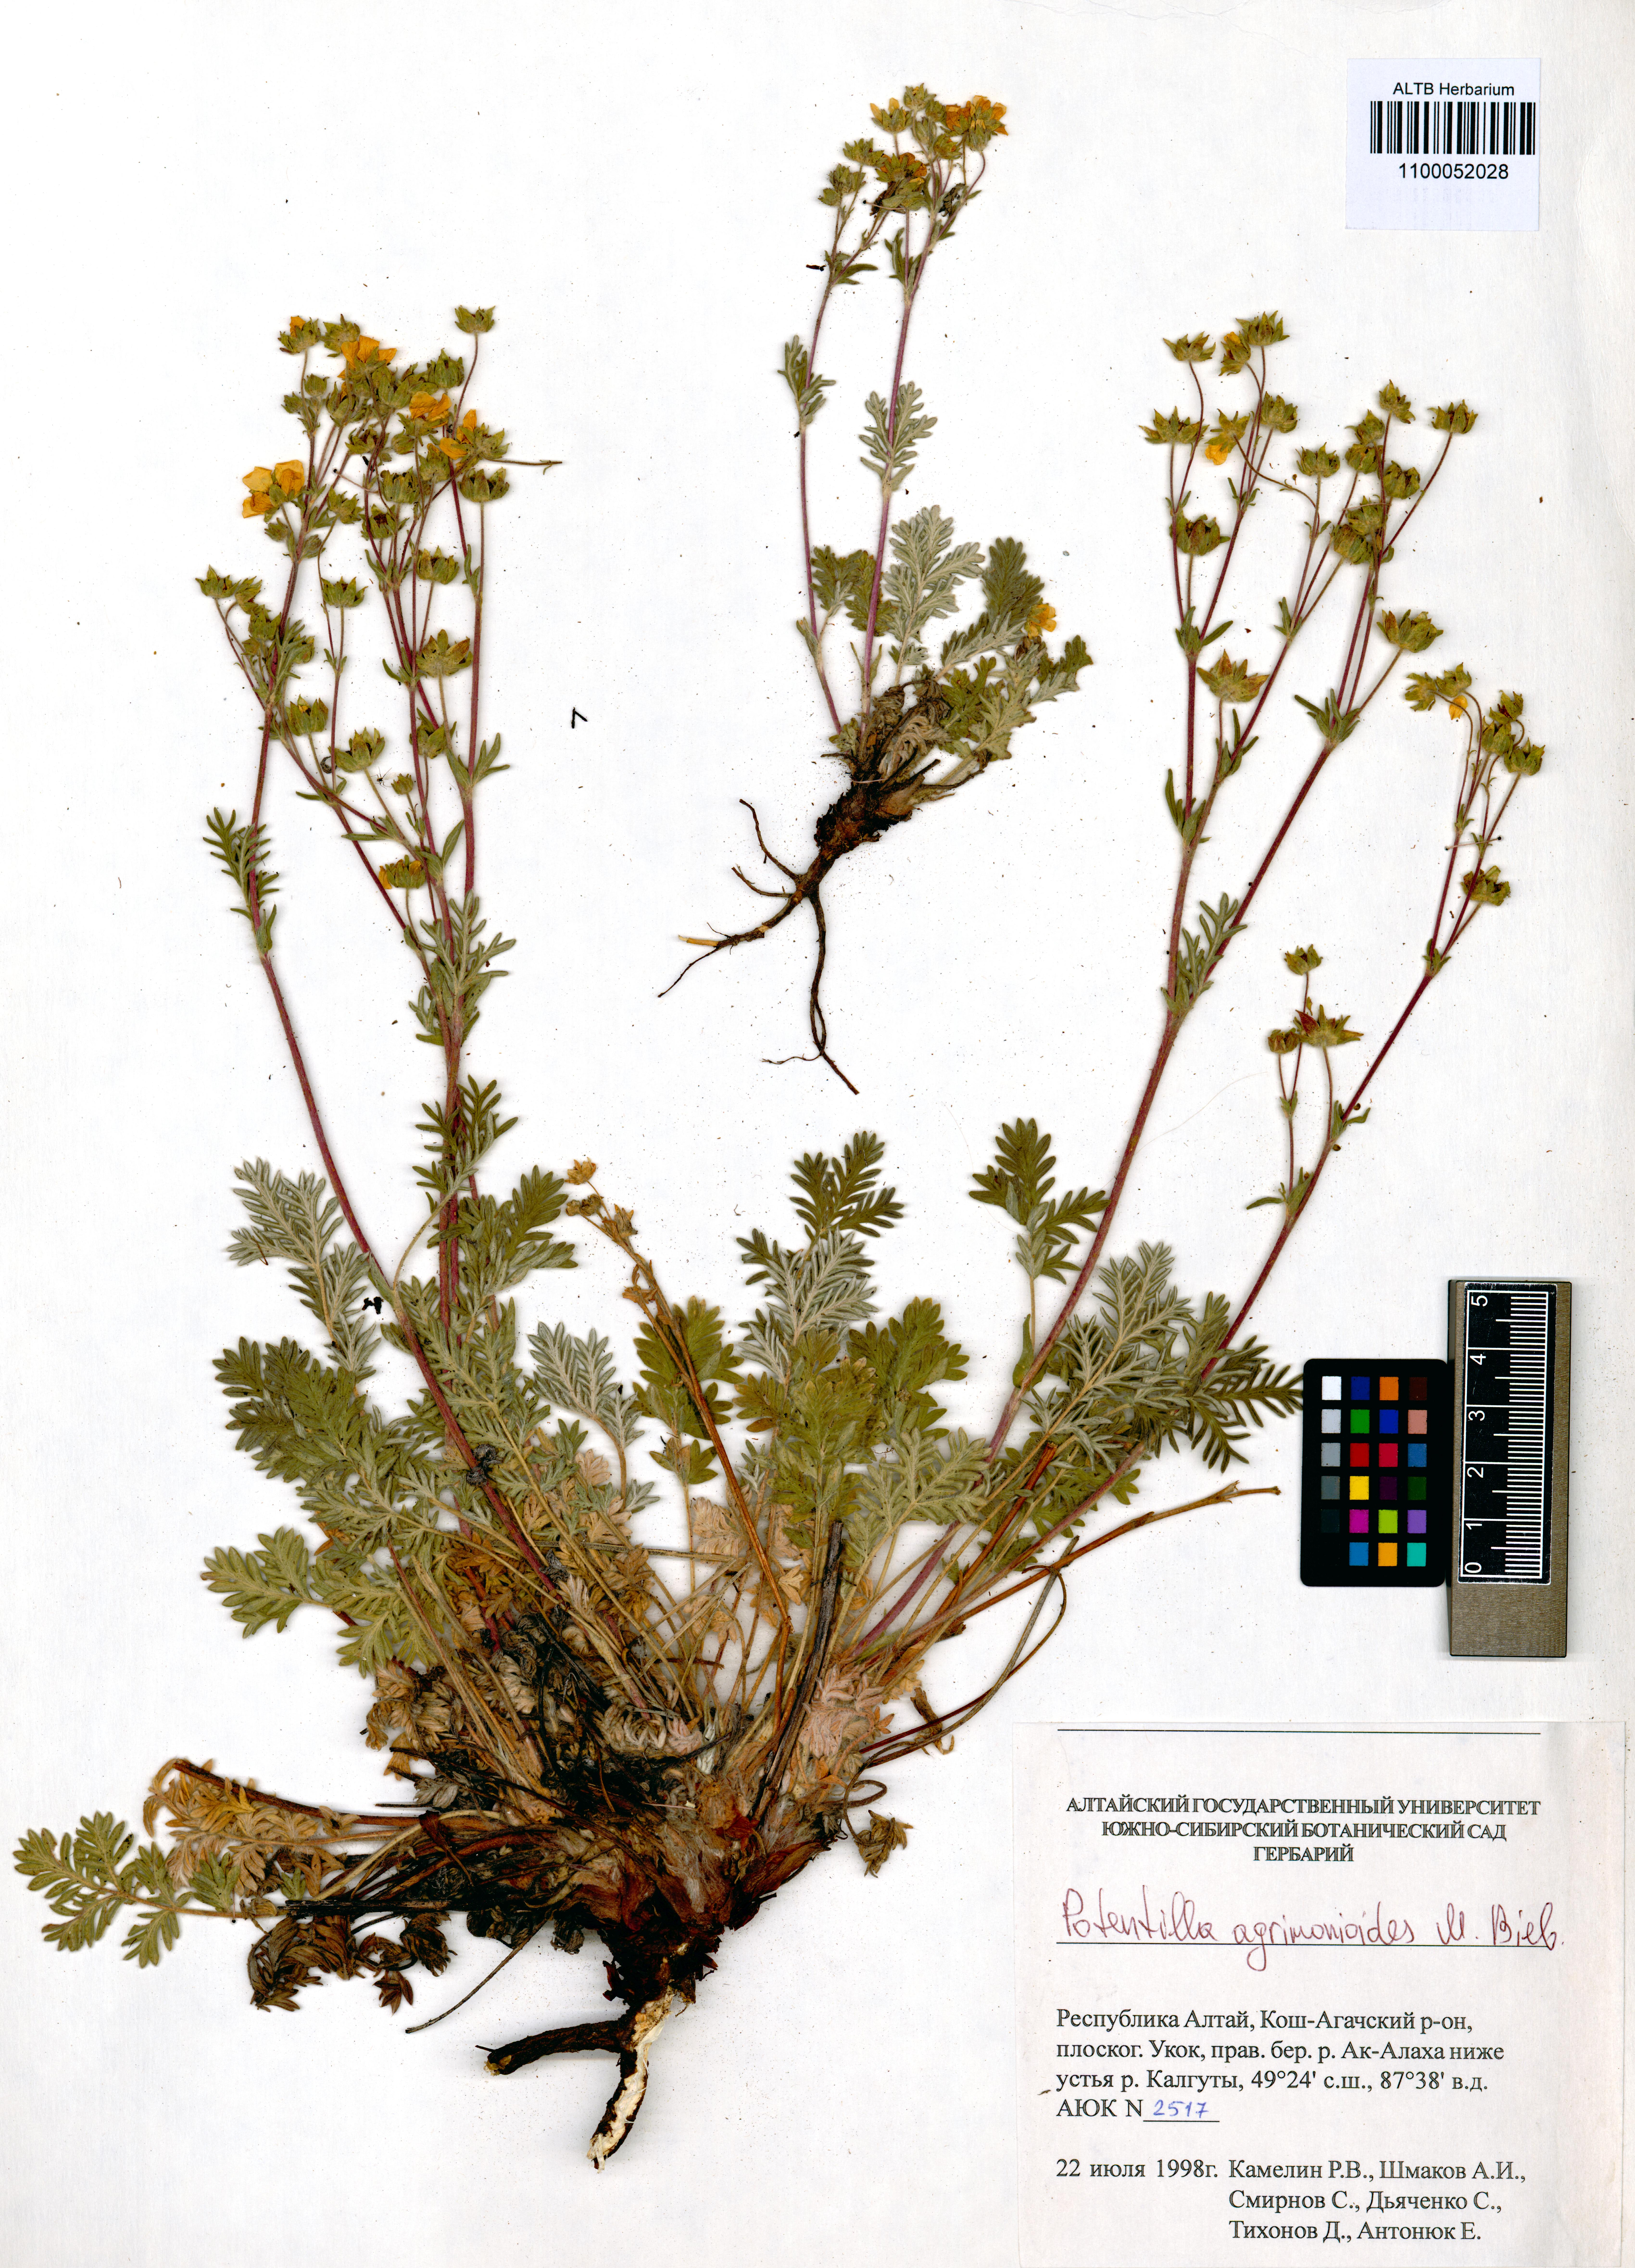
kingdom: Plantae
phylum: Tracheophyta
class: Magnoliopsida
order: Rosales
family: Rosaceae
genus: Potentilla
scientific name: Potentilla agrimonioides
